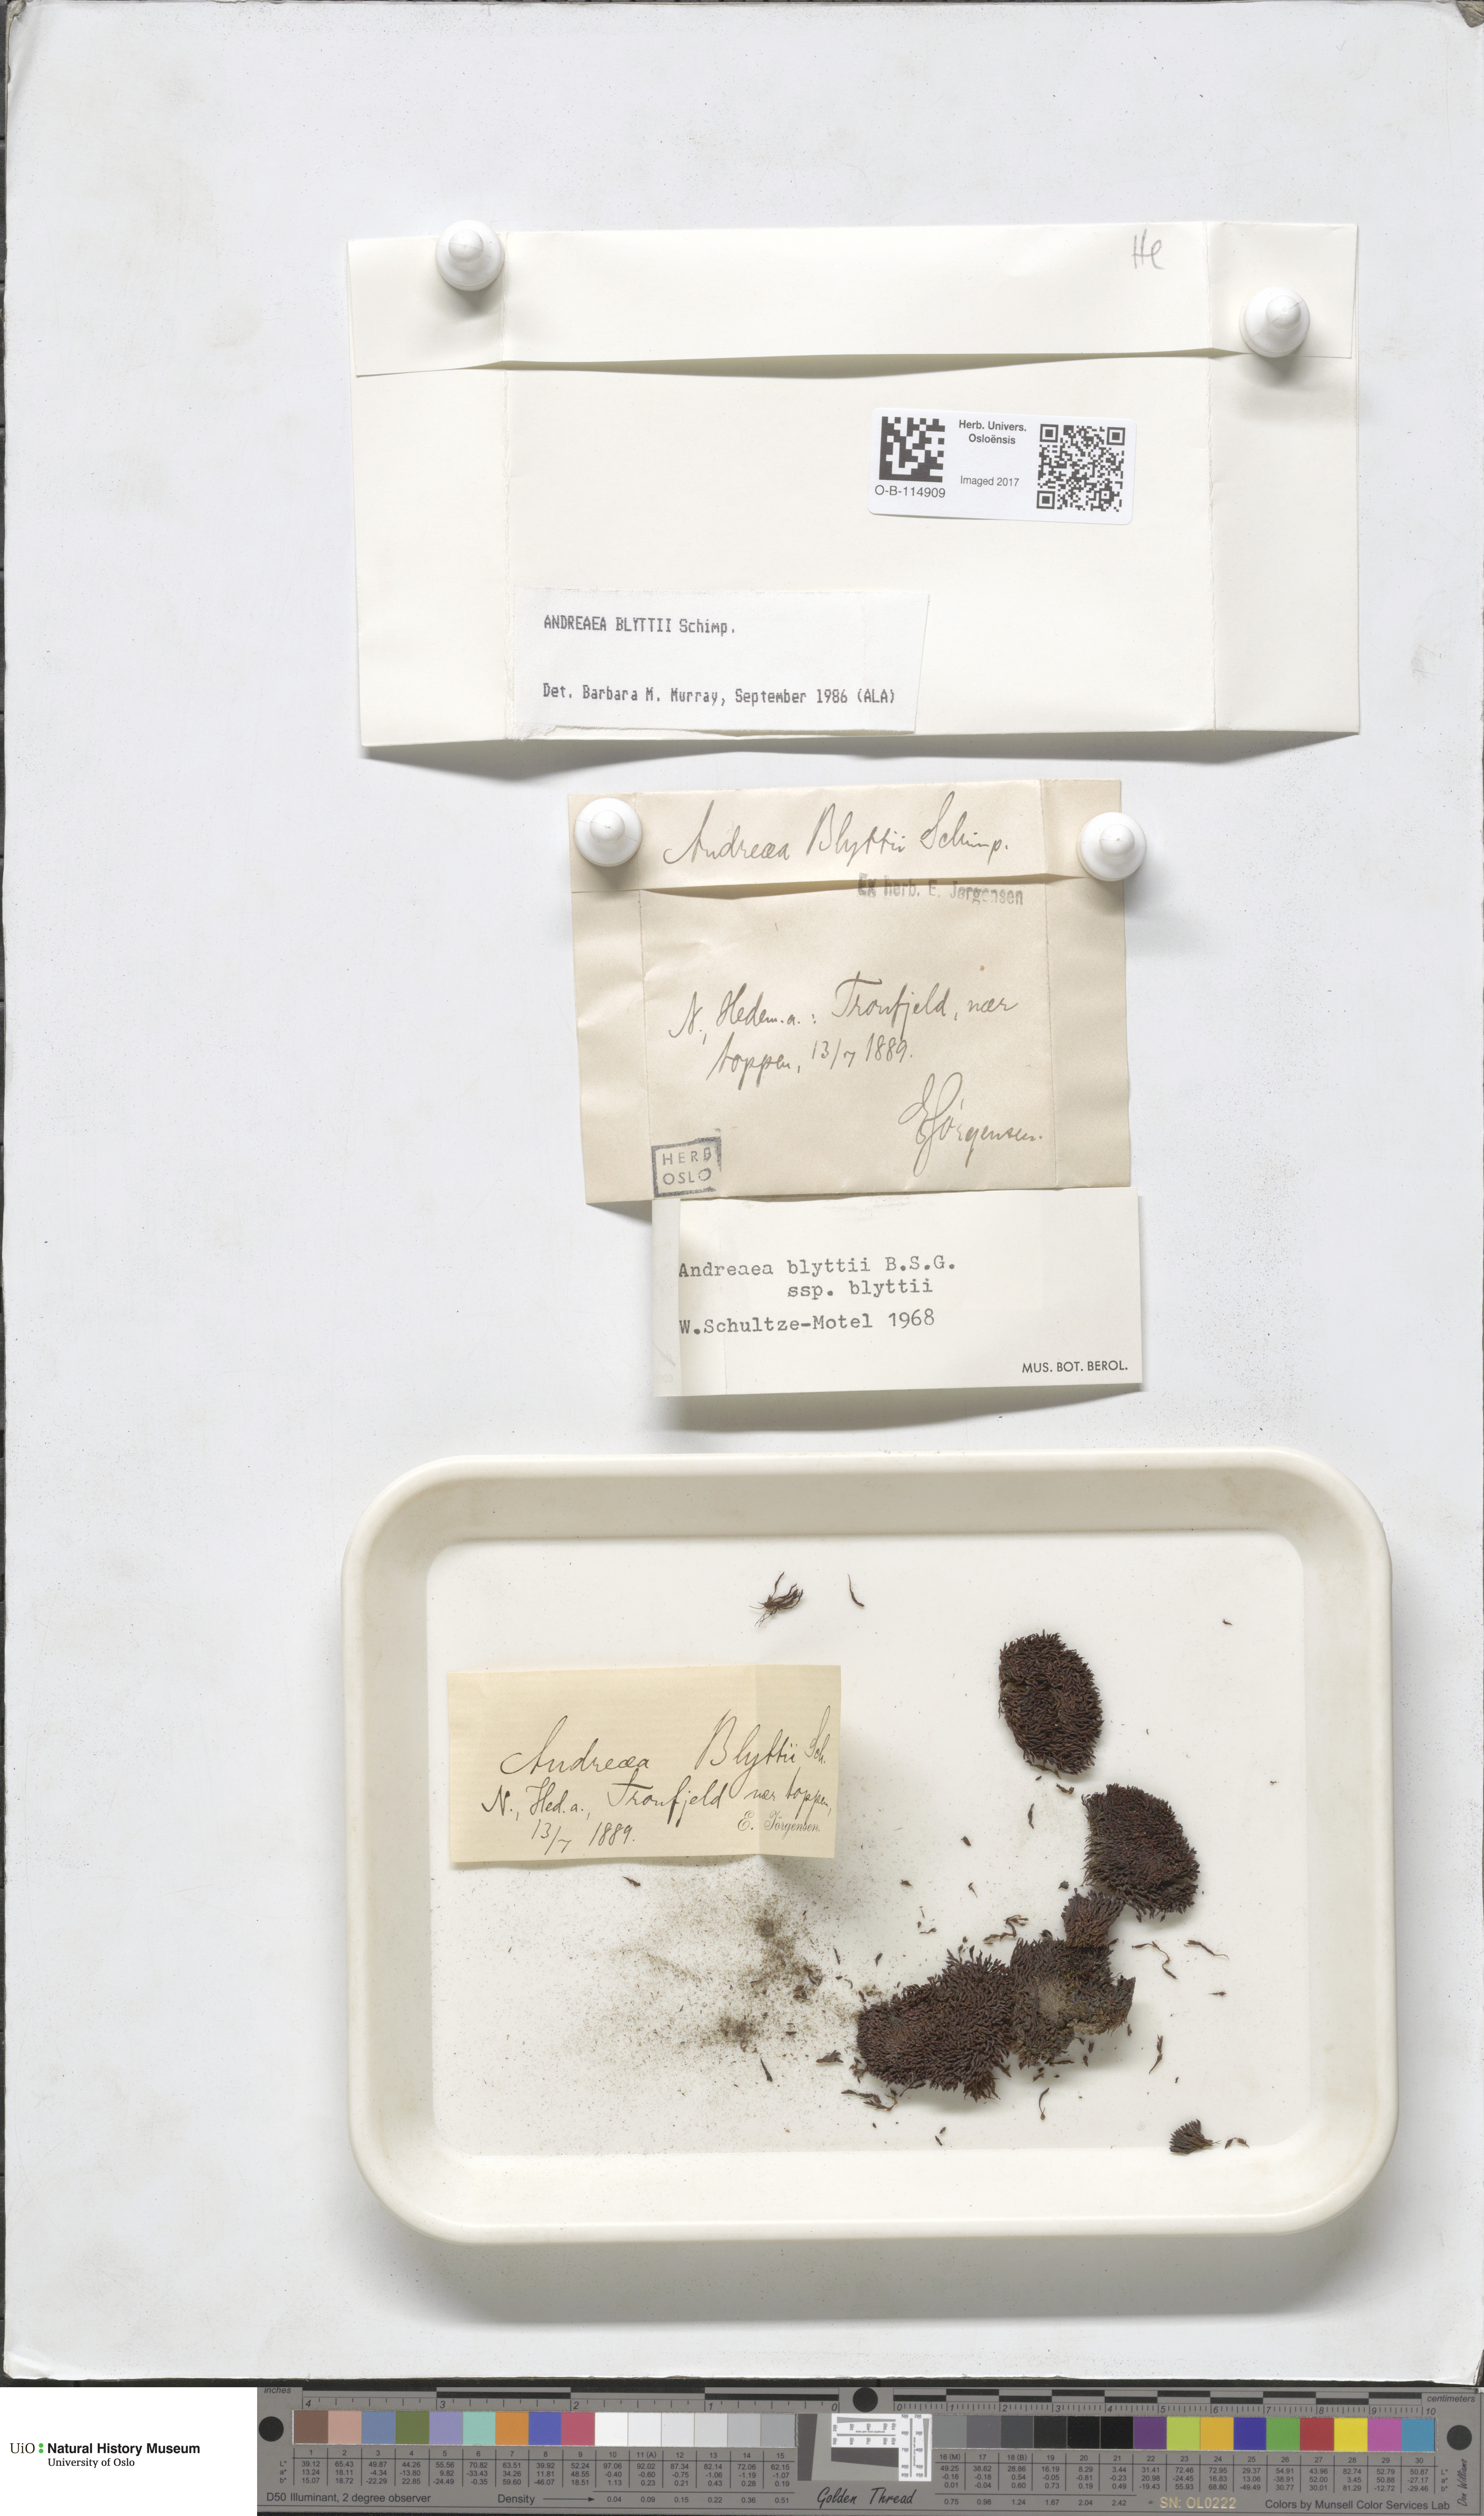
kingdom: Plantae
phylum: Bryophyta
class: Andreaeopsida
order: Andreaeales
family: Andreaeaceae
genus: Andreaea
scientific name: Andreaea hookeri
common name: Alpine rock-moss
